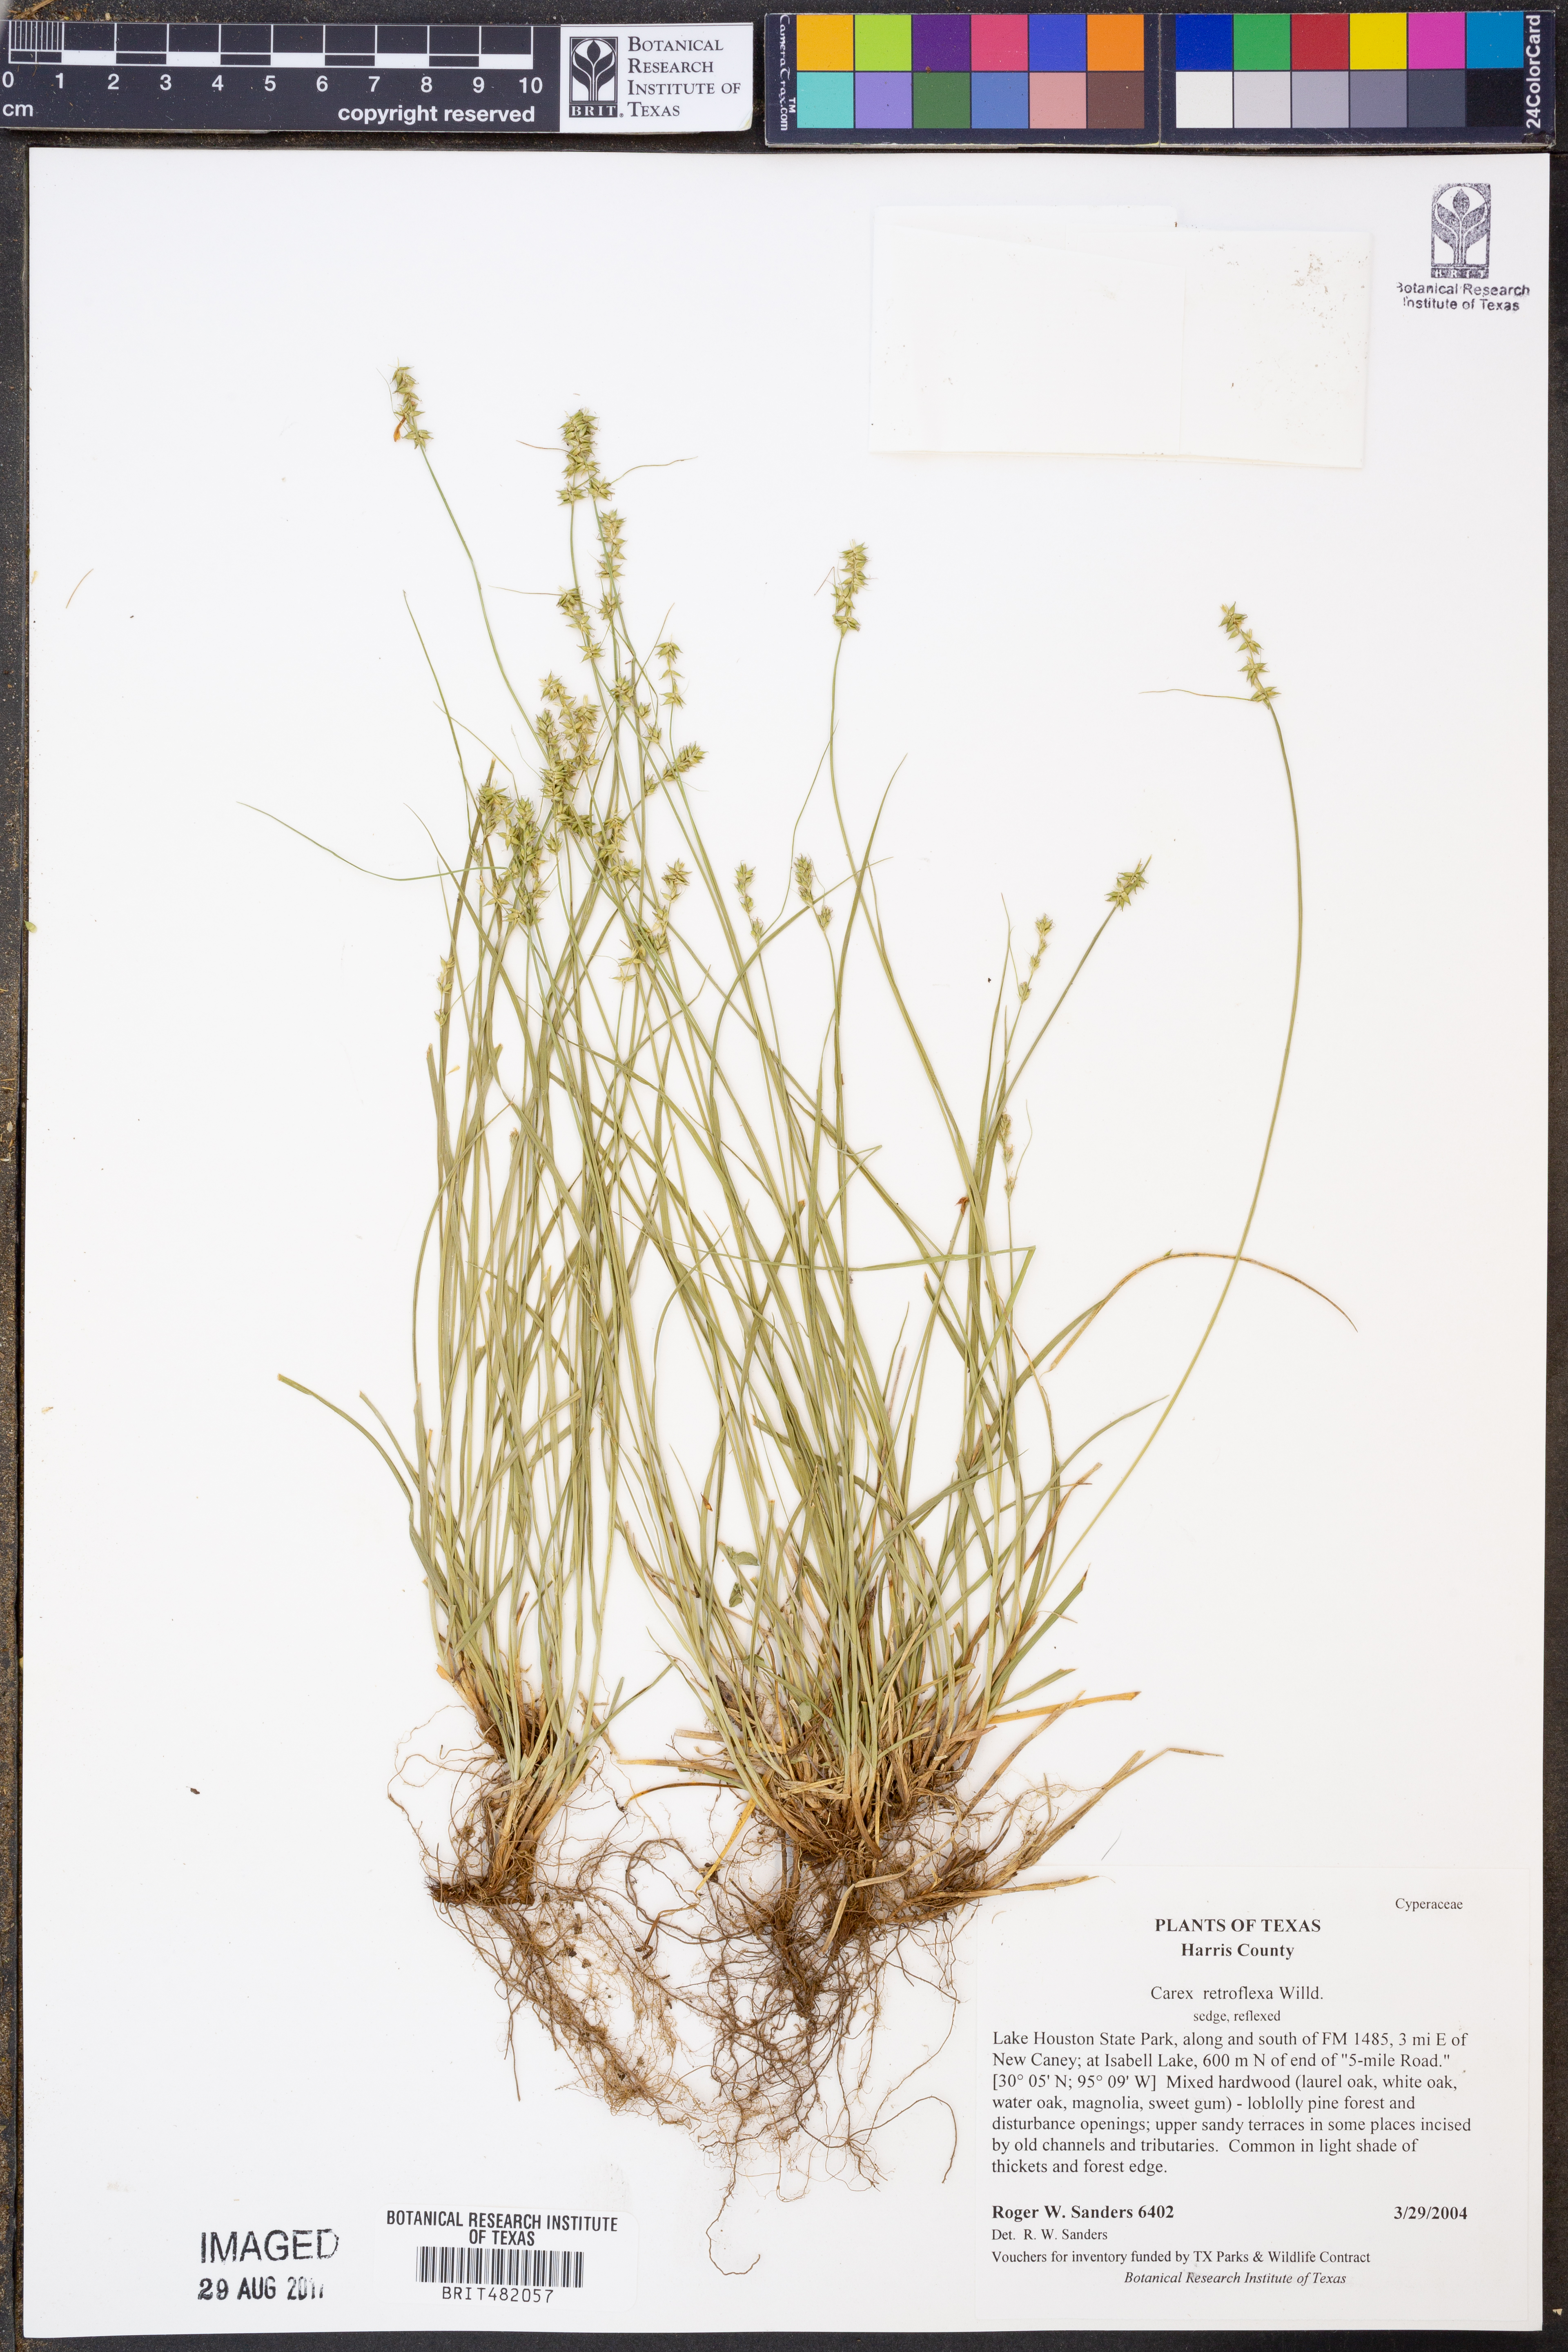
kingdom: Plantae
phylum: Tracheophyta
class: Liliopsida
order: Poales
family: Cyperaceae
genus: Carex
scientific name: Carex retroflexa
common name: Reflexed sedge
